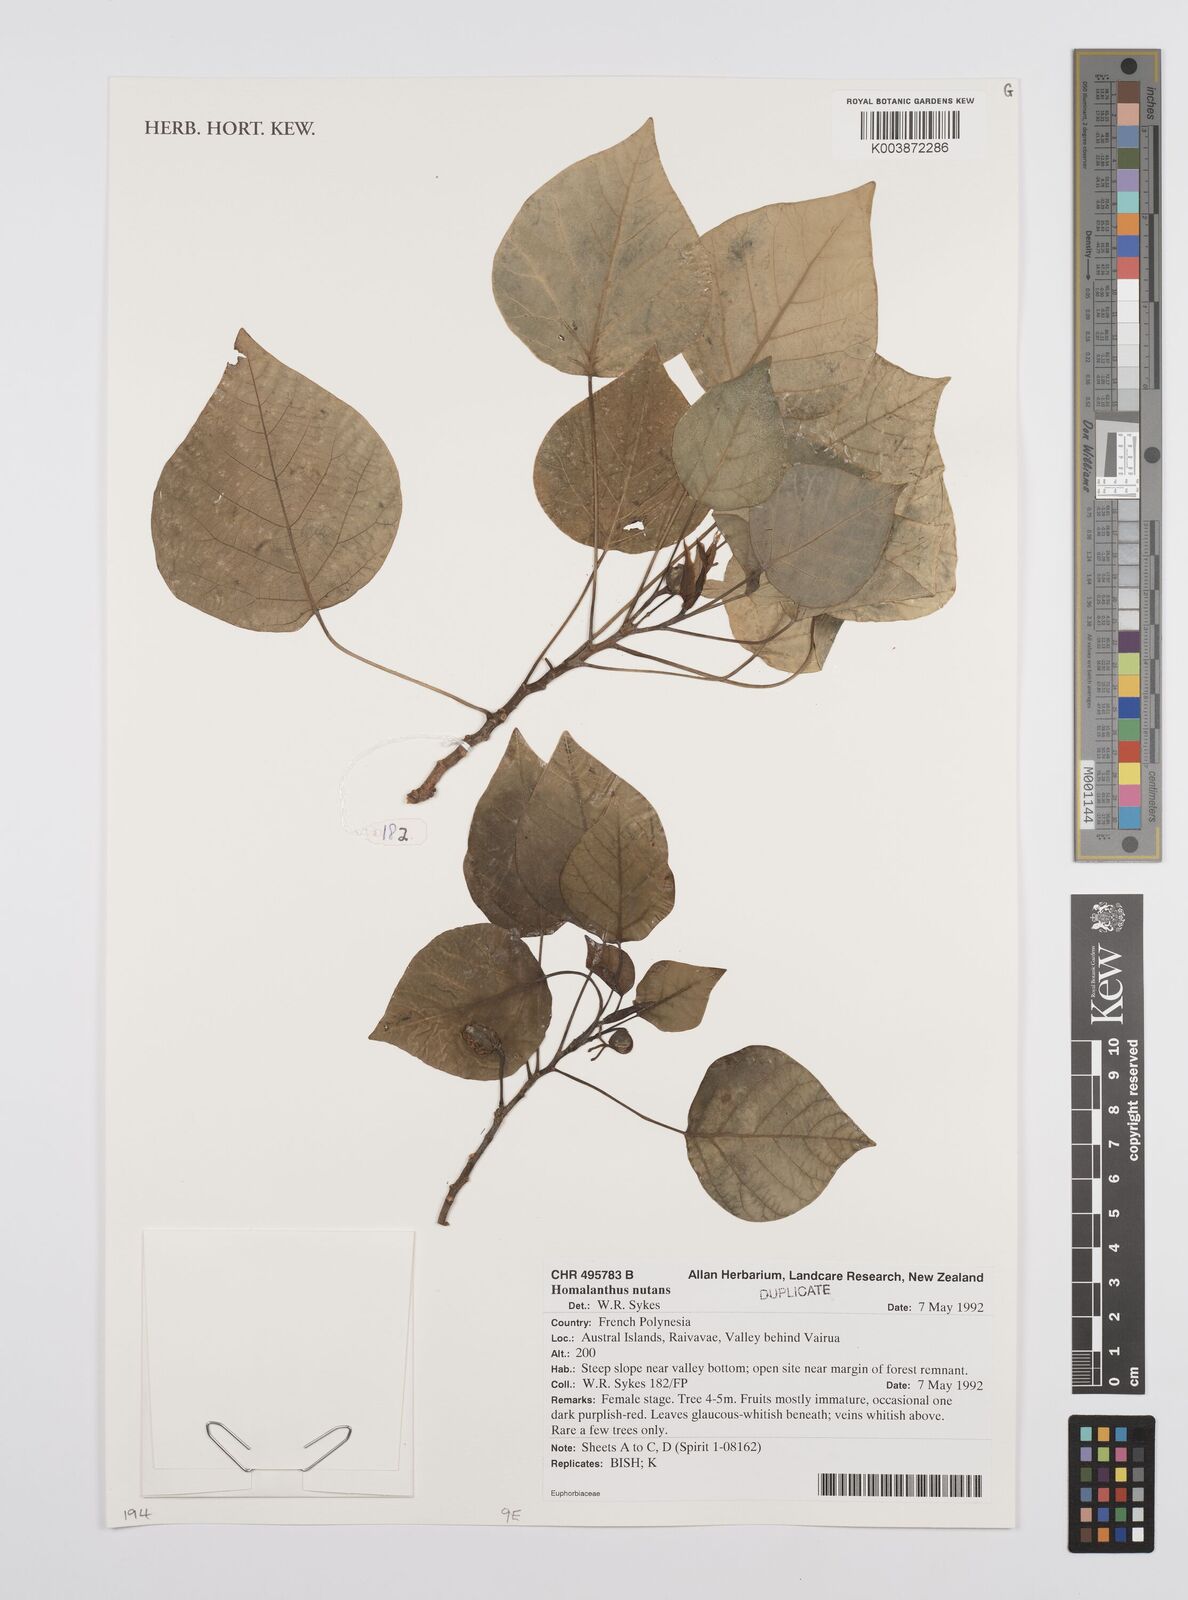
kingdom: Plantae
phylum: Tracheophyta
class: Magnoliopsida
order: Malpighiales
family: Euphorbiaceae
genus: Homalanthus
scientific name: Homalanthus nutans
